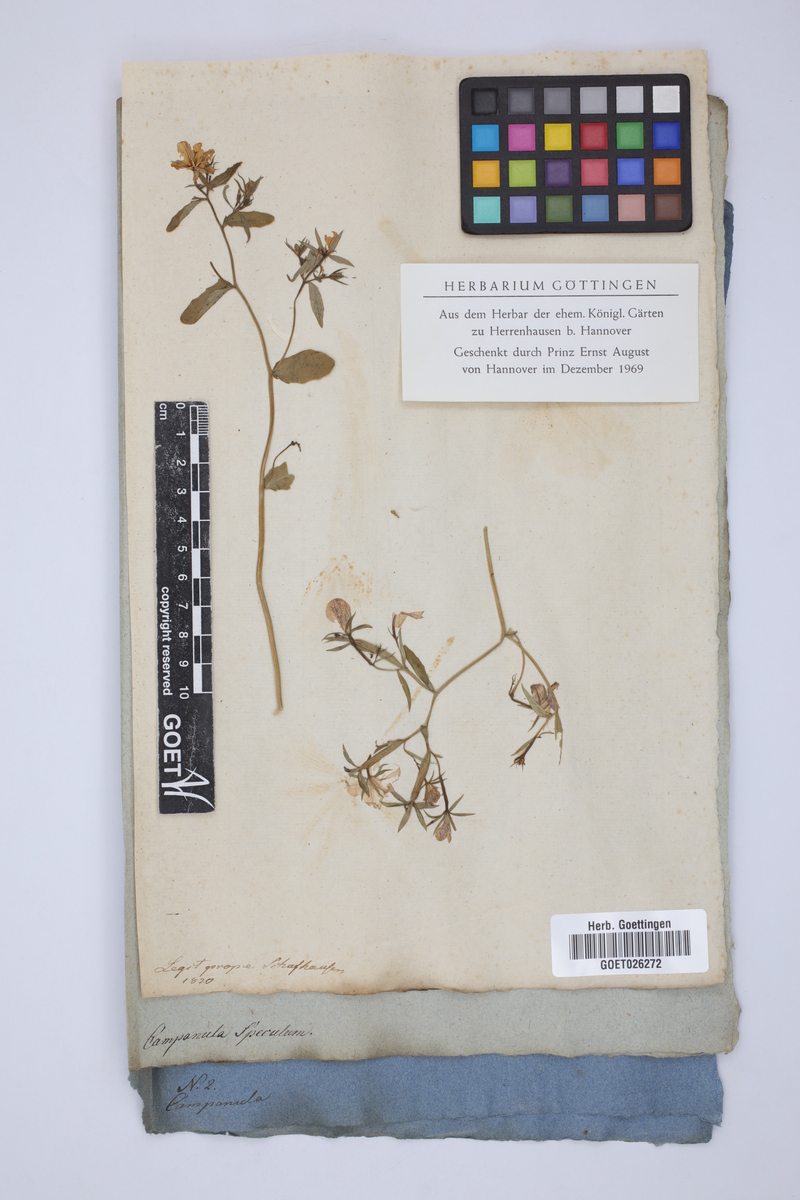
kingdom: Plantae
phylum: Tracheophyta
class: Magnoliopsida
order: Asterales
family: Campanulaceae
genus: Campanula
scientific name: Campanula speculum
